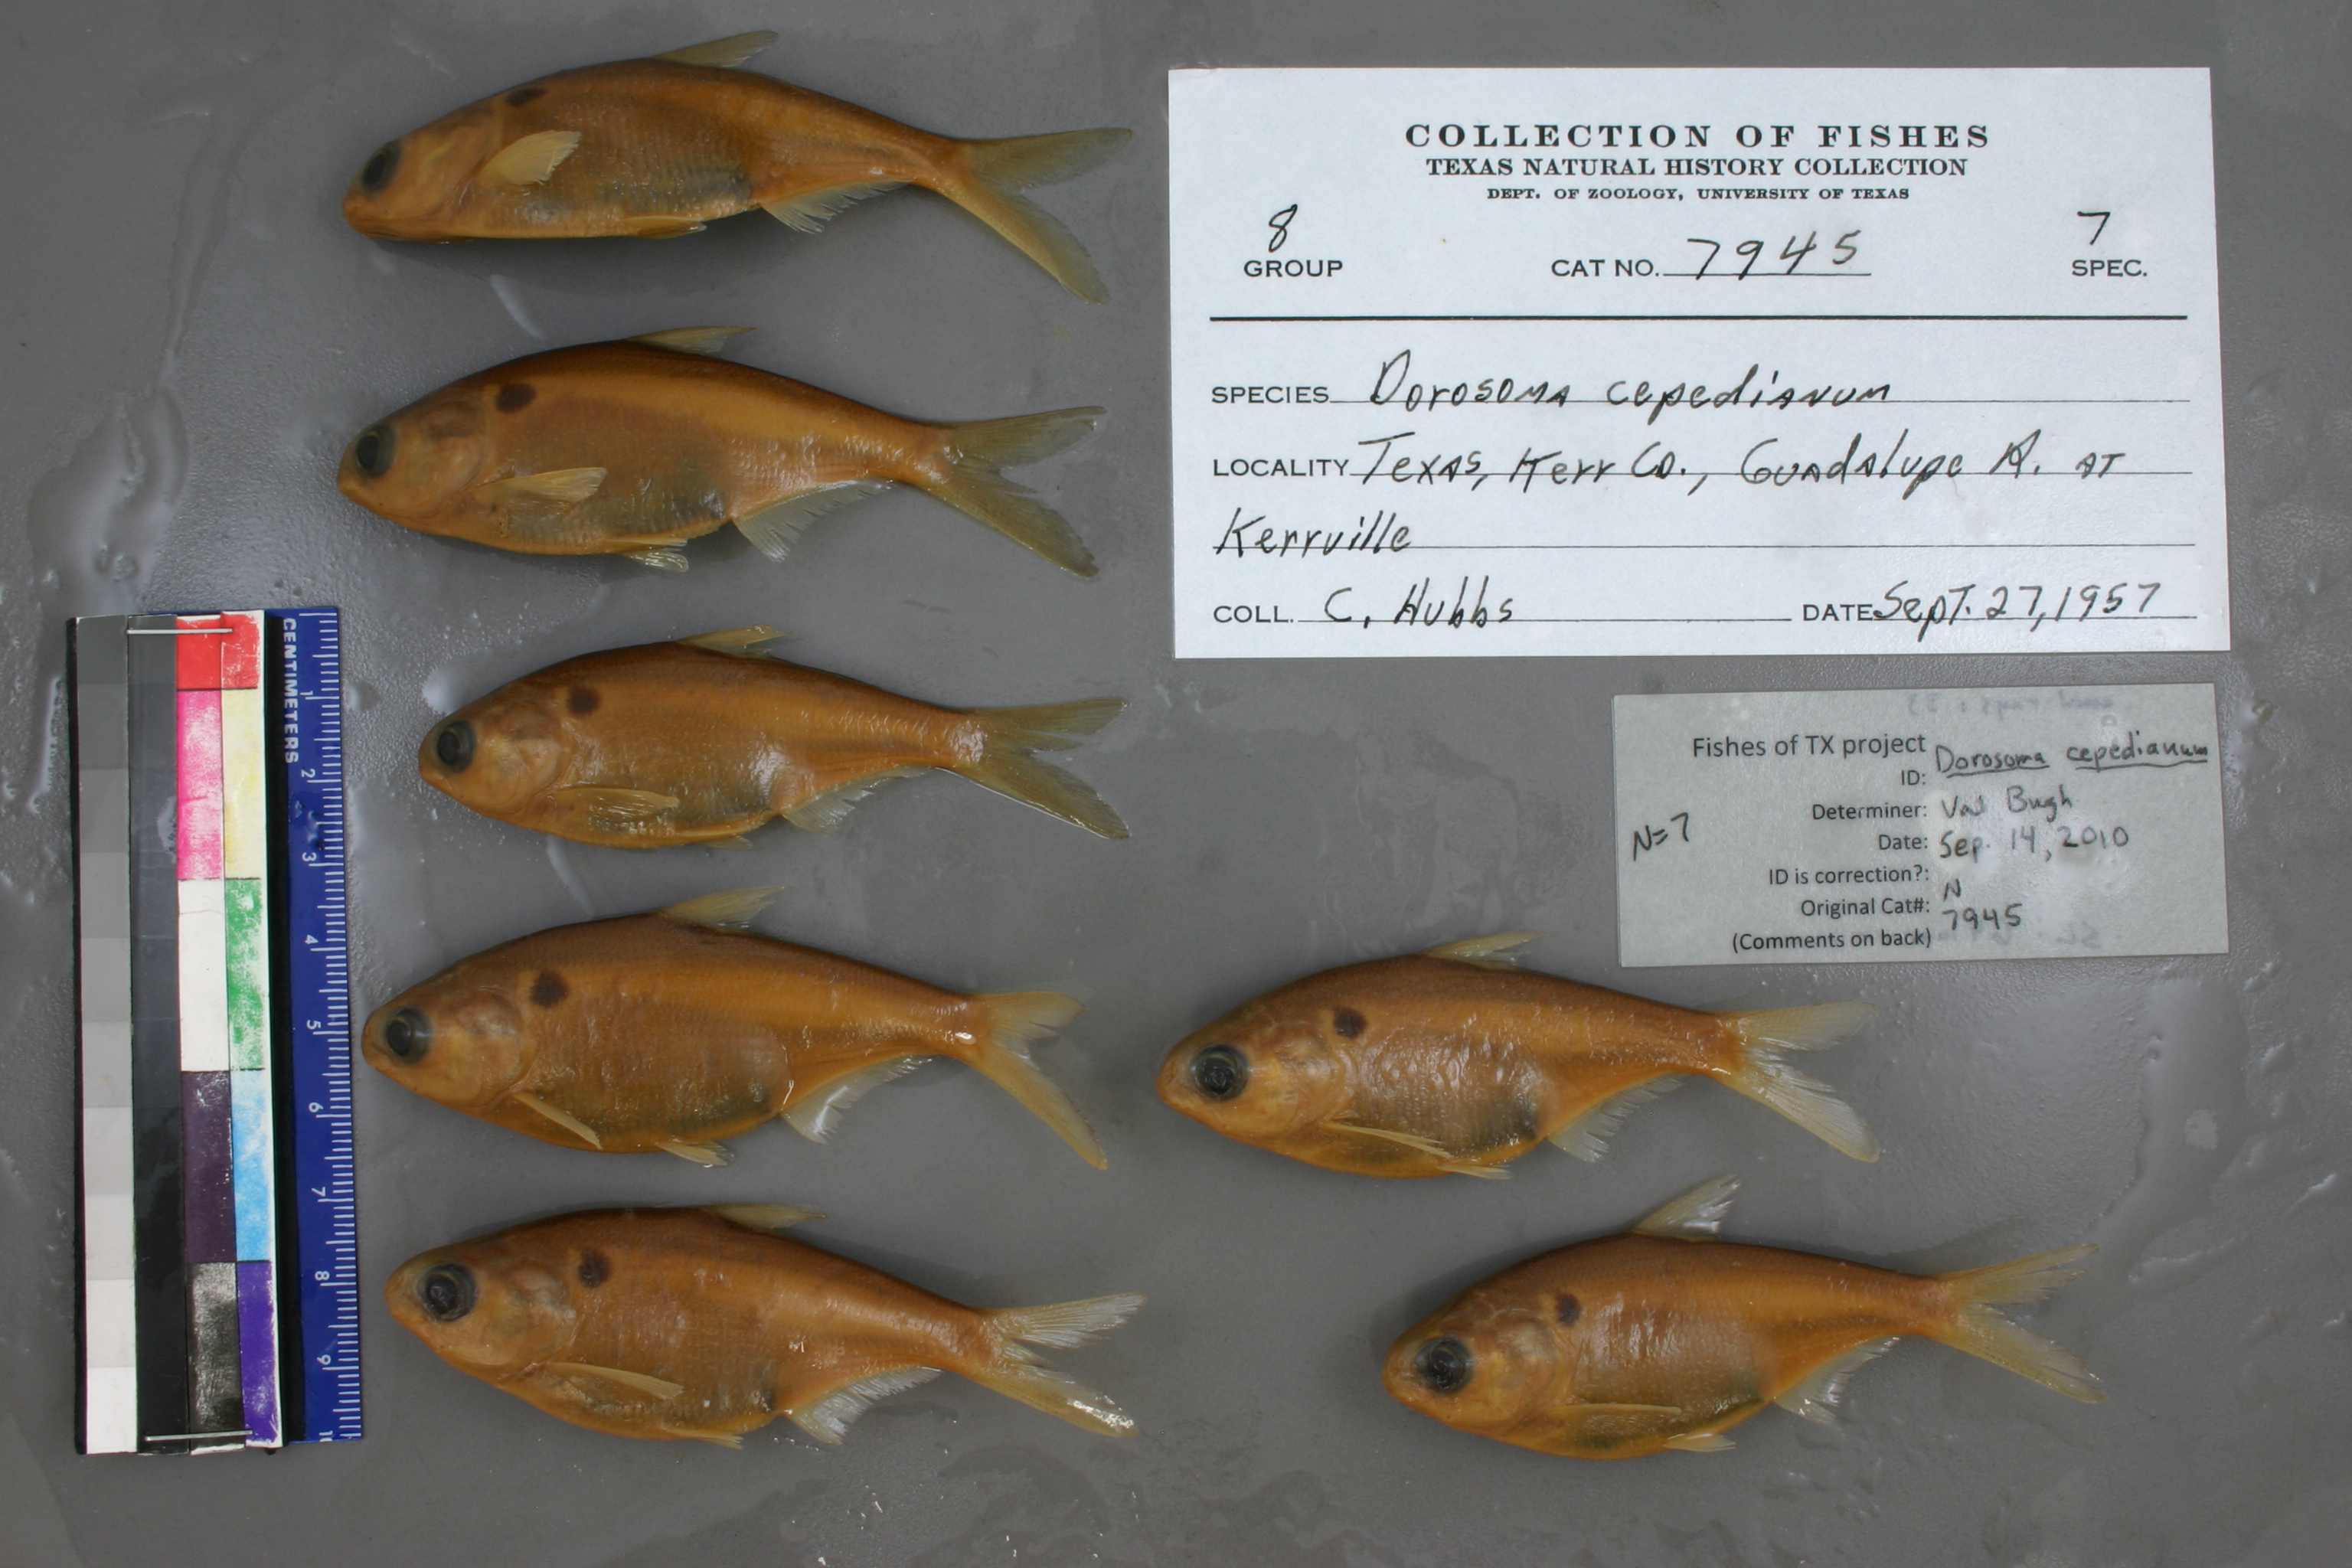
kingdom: Animalia
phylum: Chordata
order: Clupeiformes
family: Clupeidae
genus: Dorosoma
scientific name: Dorosoma cepedianum
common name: Gizzard shad
